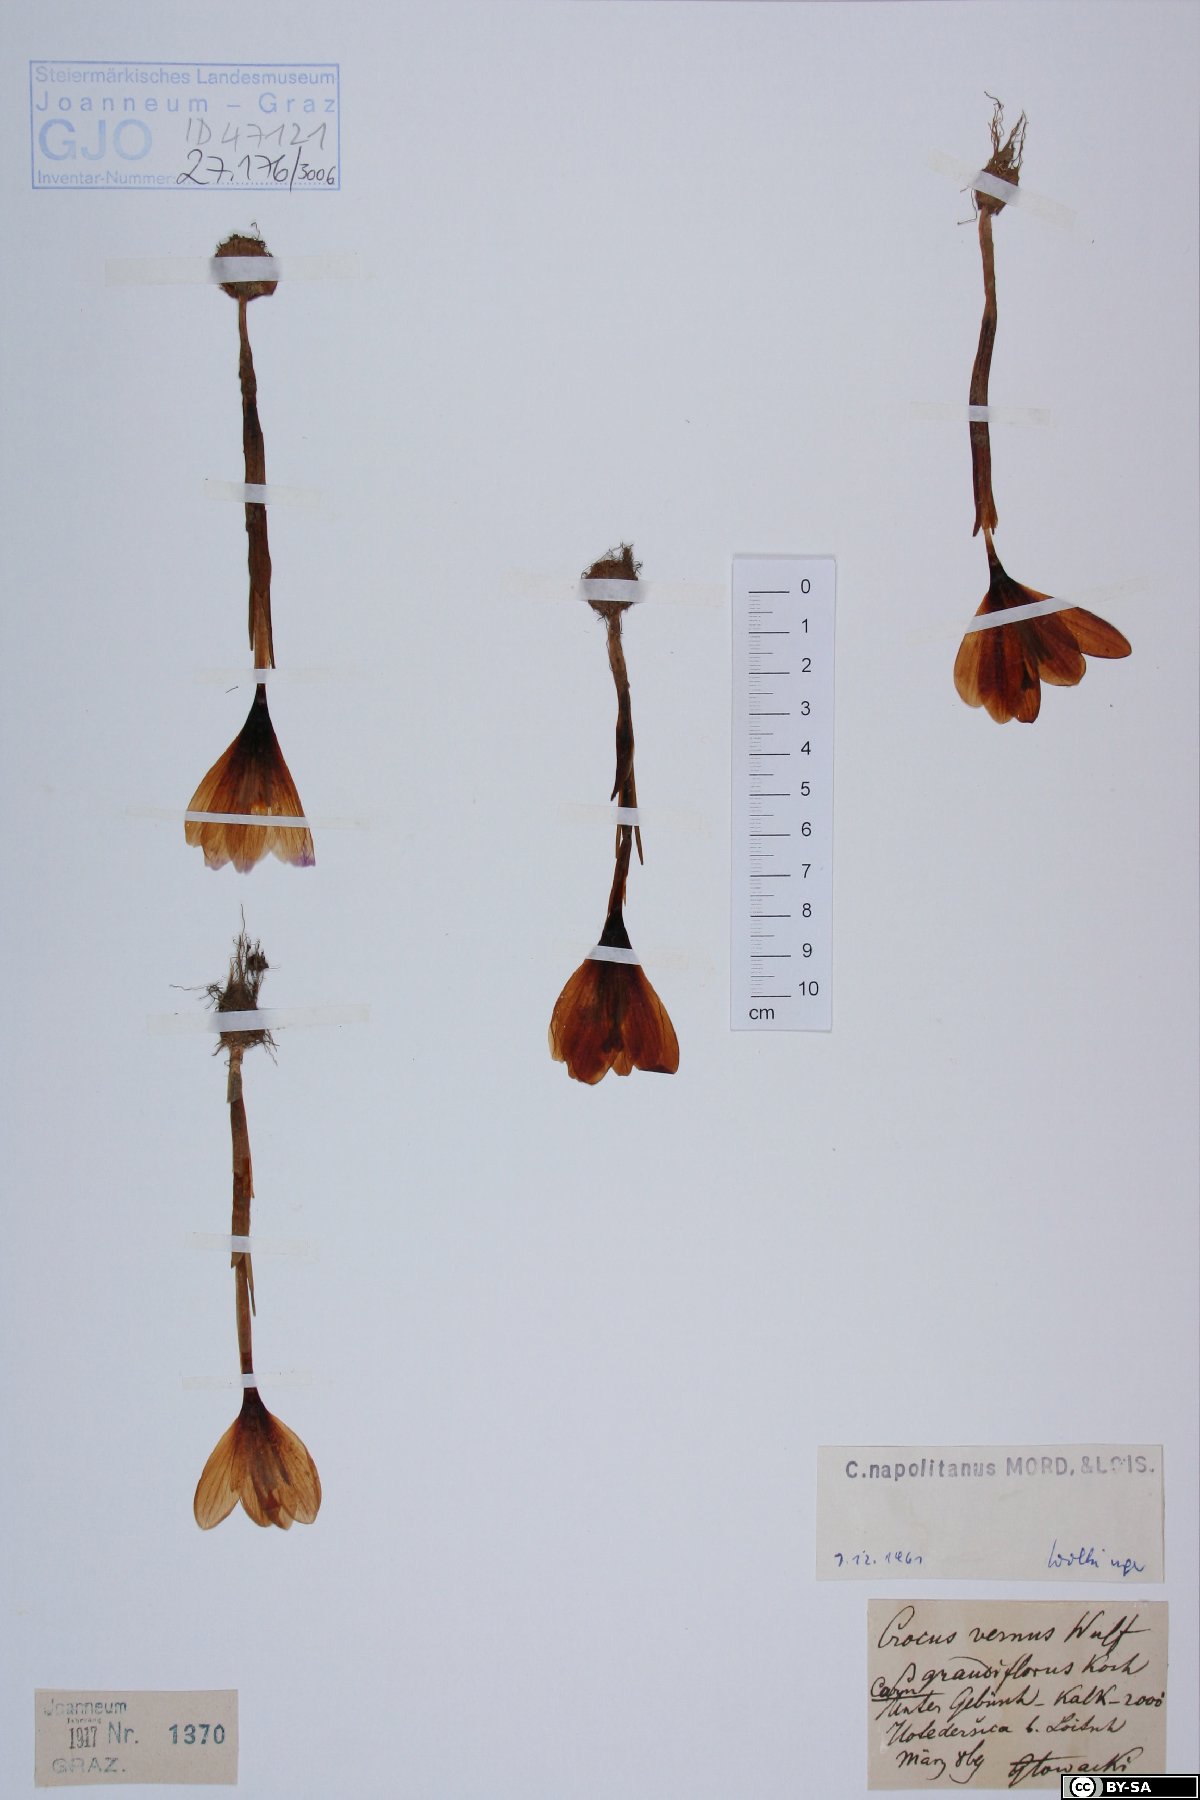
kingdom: Plantae
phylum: Tracheophyta
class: Liliopsida
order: Asparagales
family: Iridaceae
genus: Crocus
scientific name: Crocus neapolitanus
